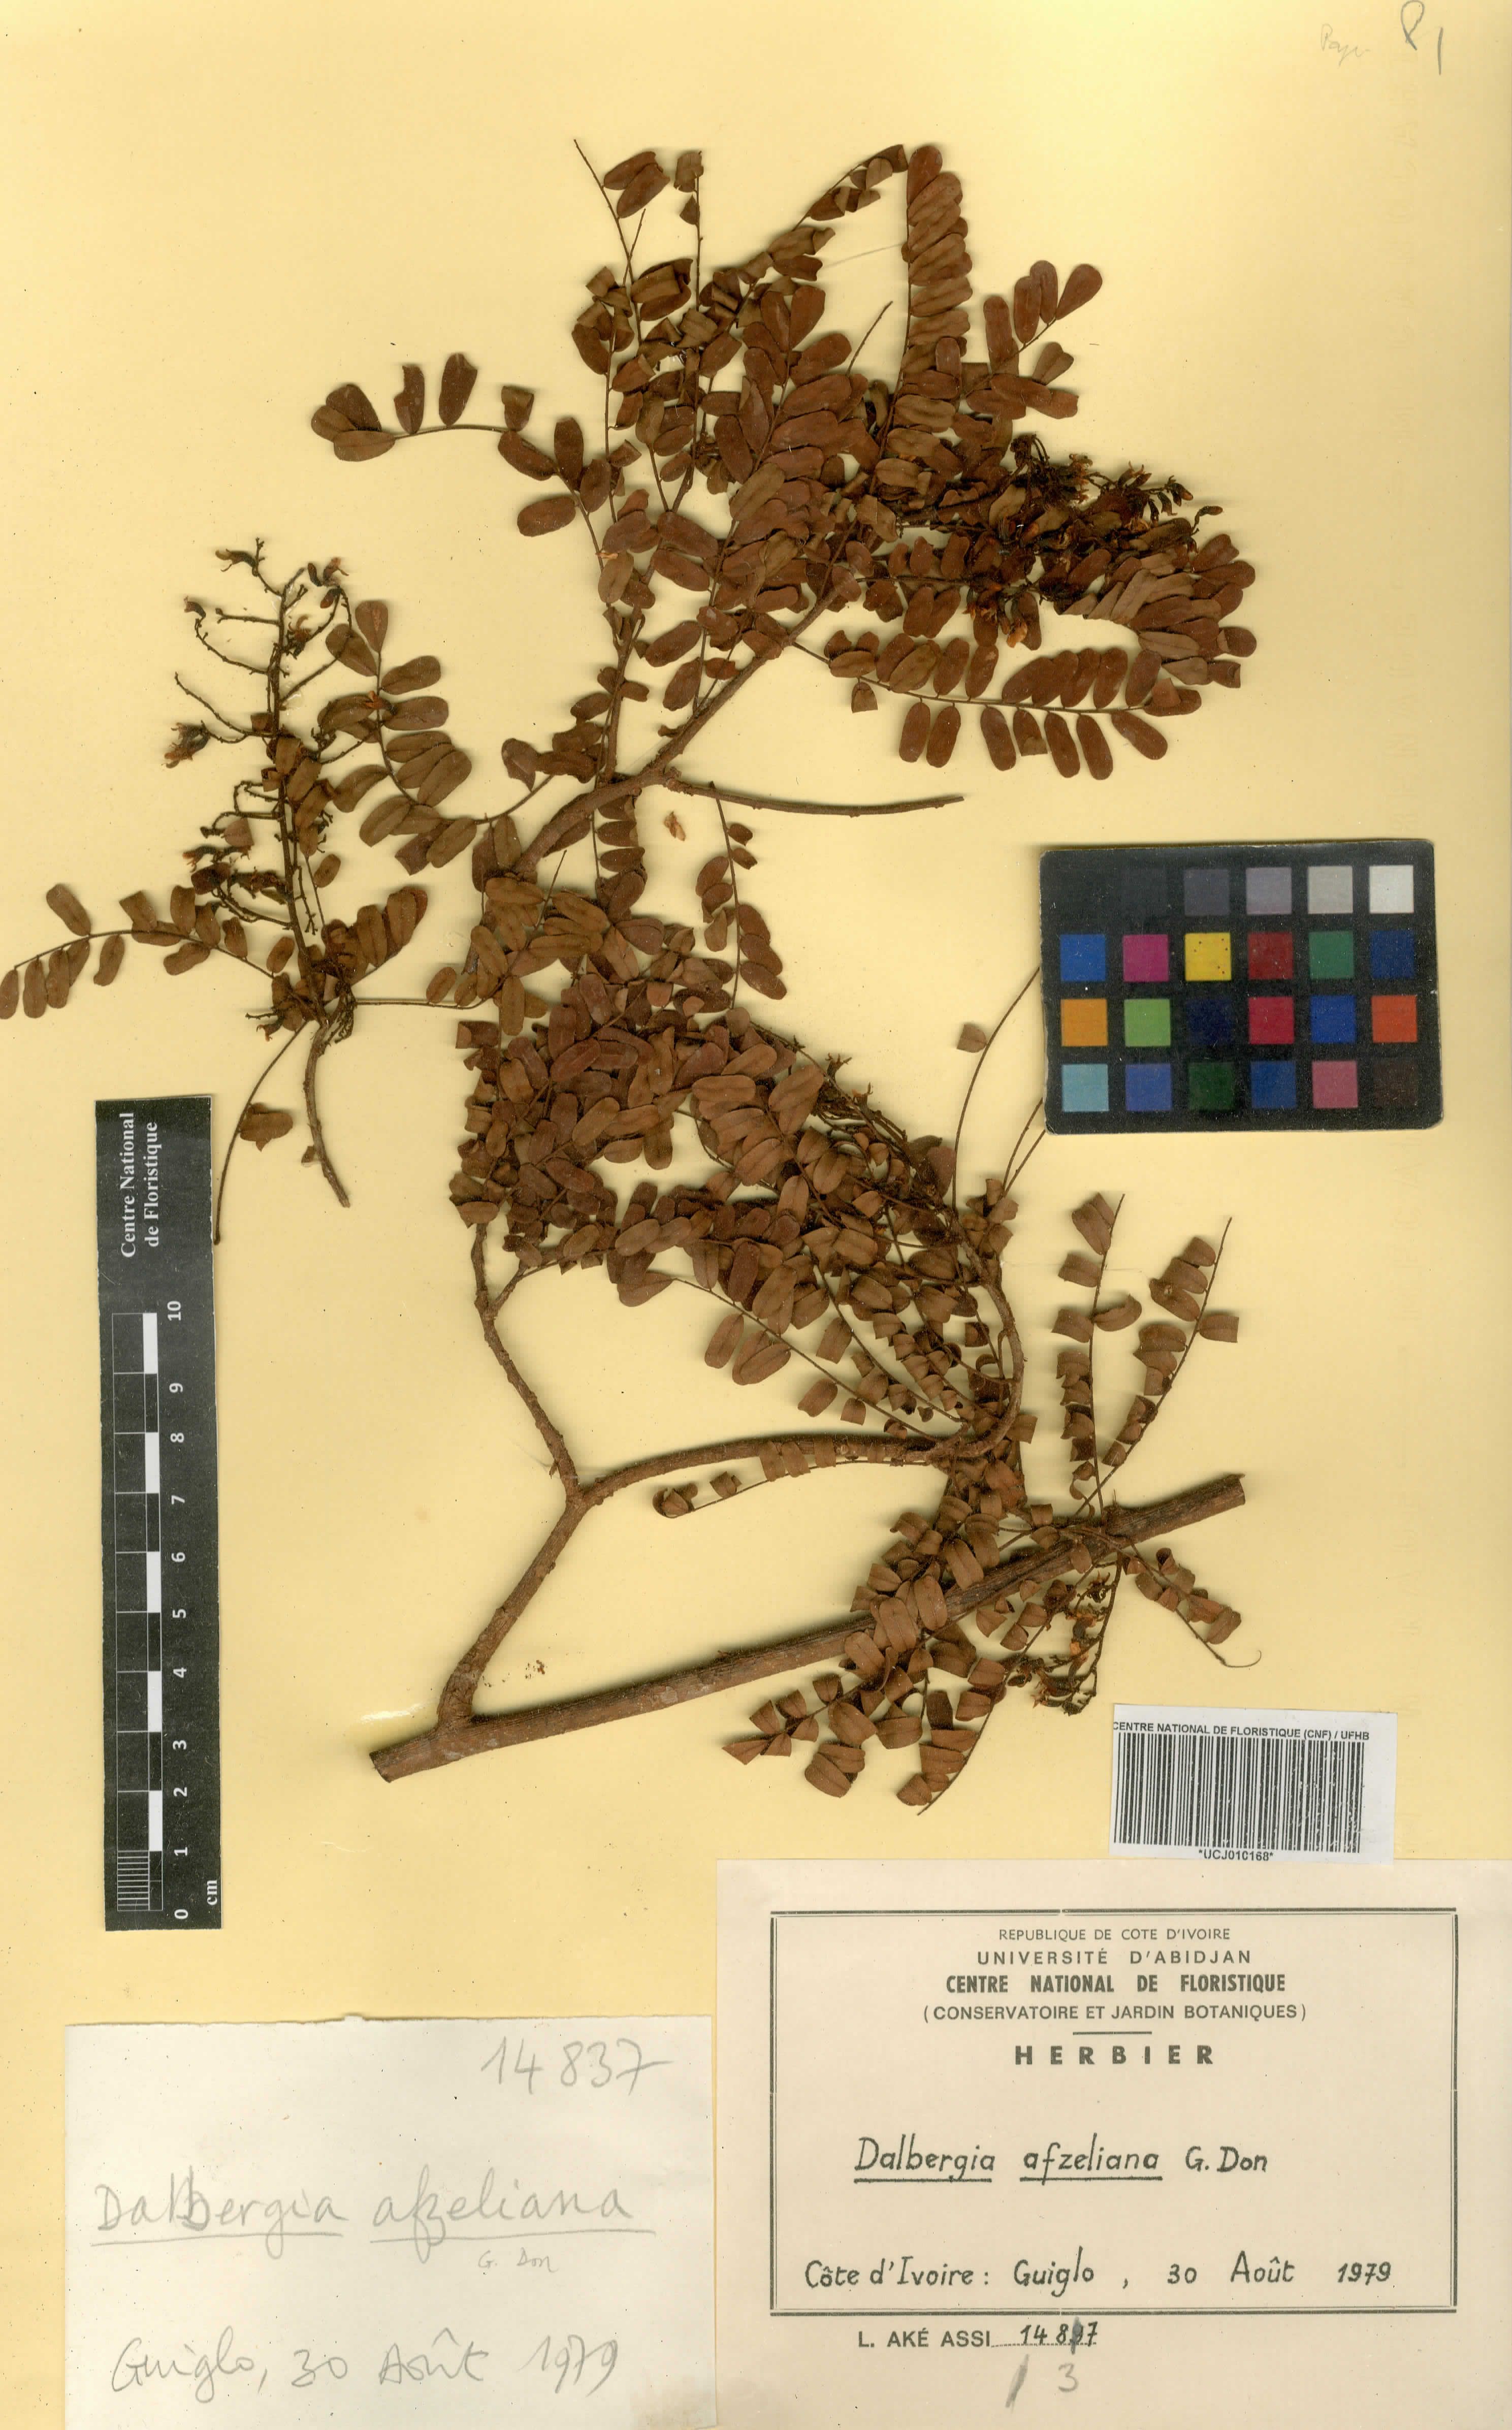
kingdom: Plantae
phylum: Tracheophyta
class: Magnoliopsida
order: Fabales
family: Fabaceae
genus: Dalbergia
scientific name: Dalbergia afzeliana
